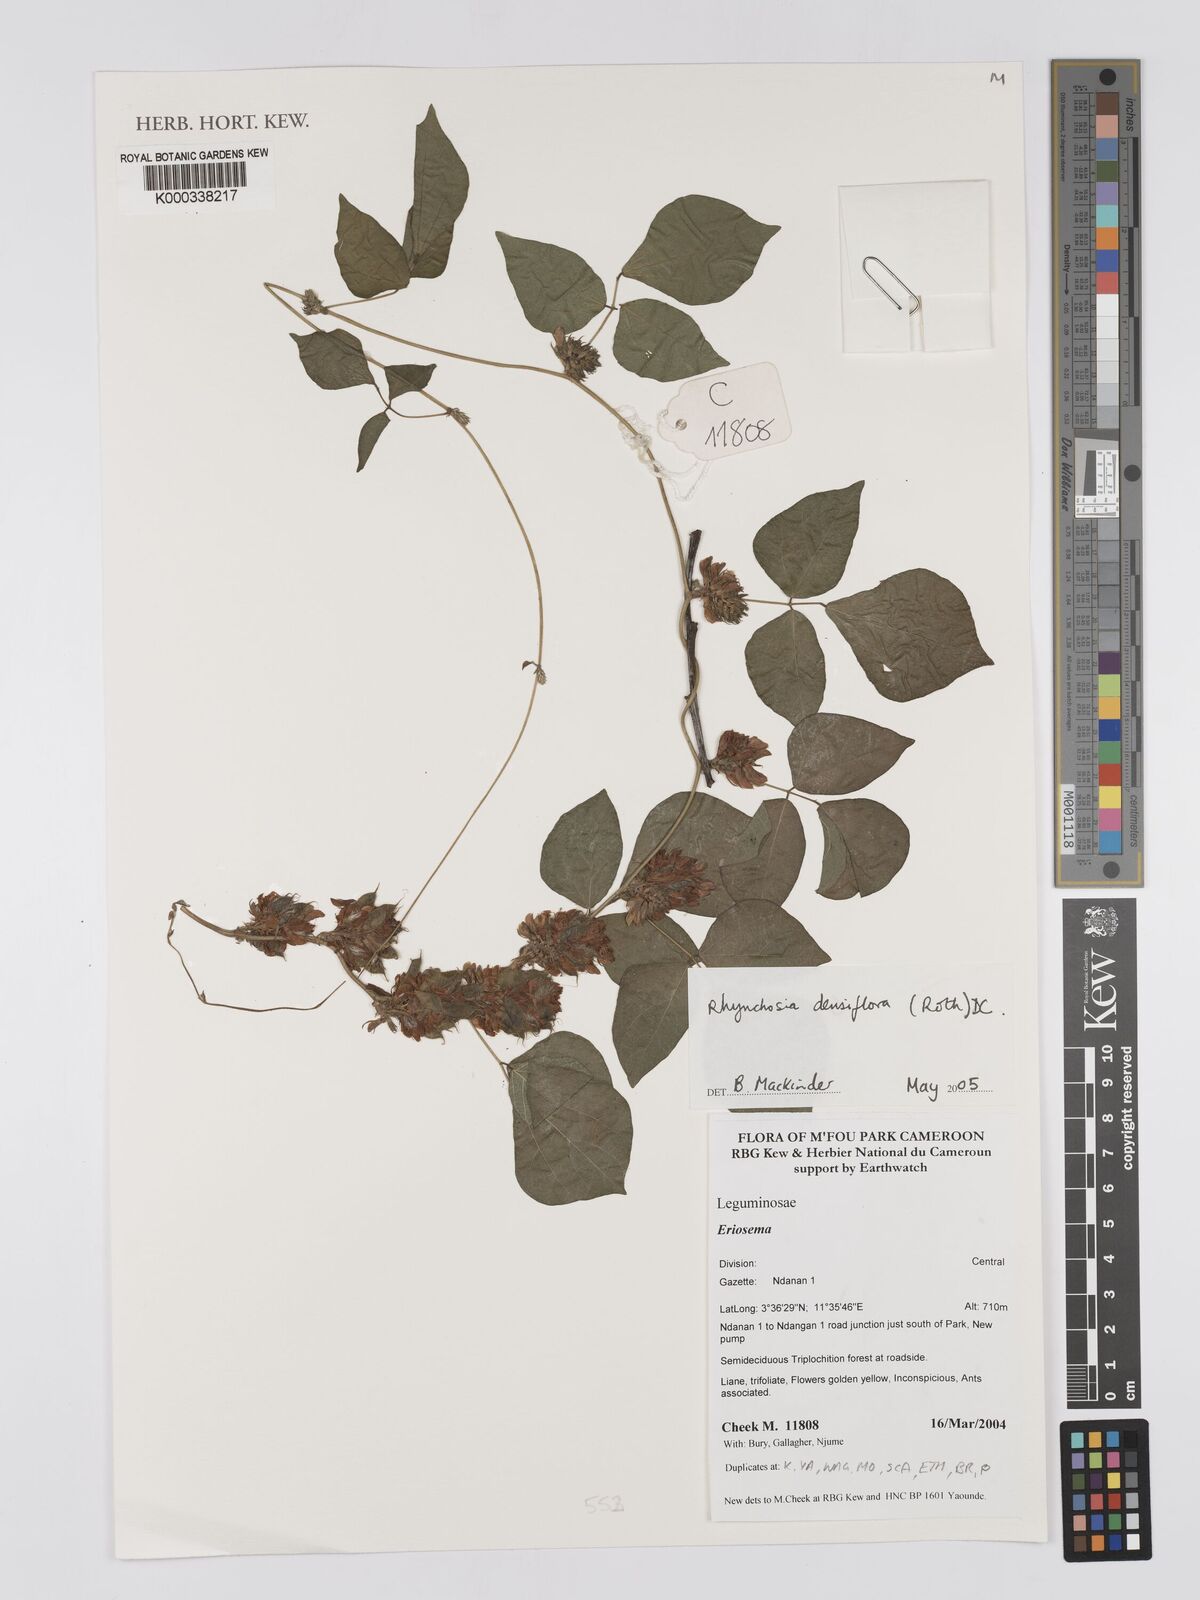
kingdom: Plantae
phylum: Tracheophyta
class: Magnoliopsida
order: Fabales
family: Fabaceae
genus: Rhynchosia
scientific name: Rhynchosia densiflora
